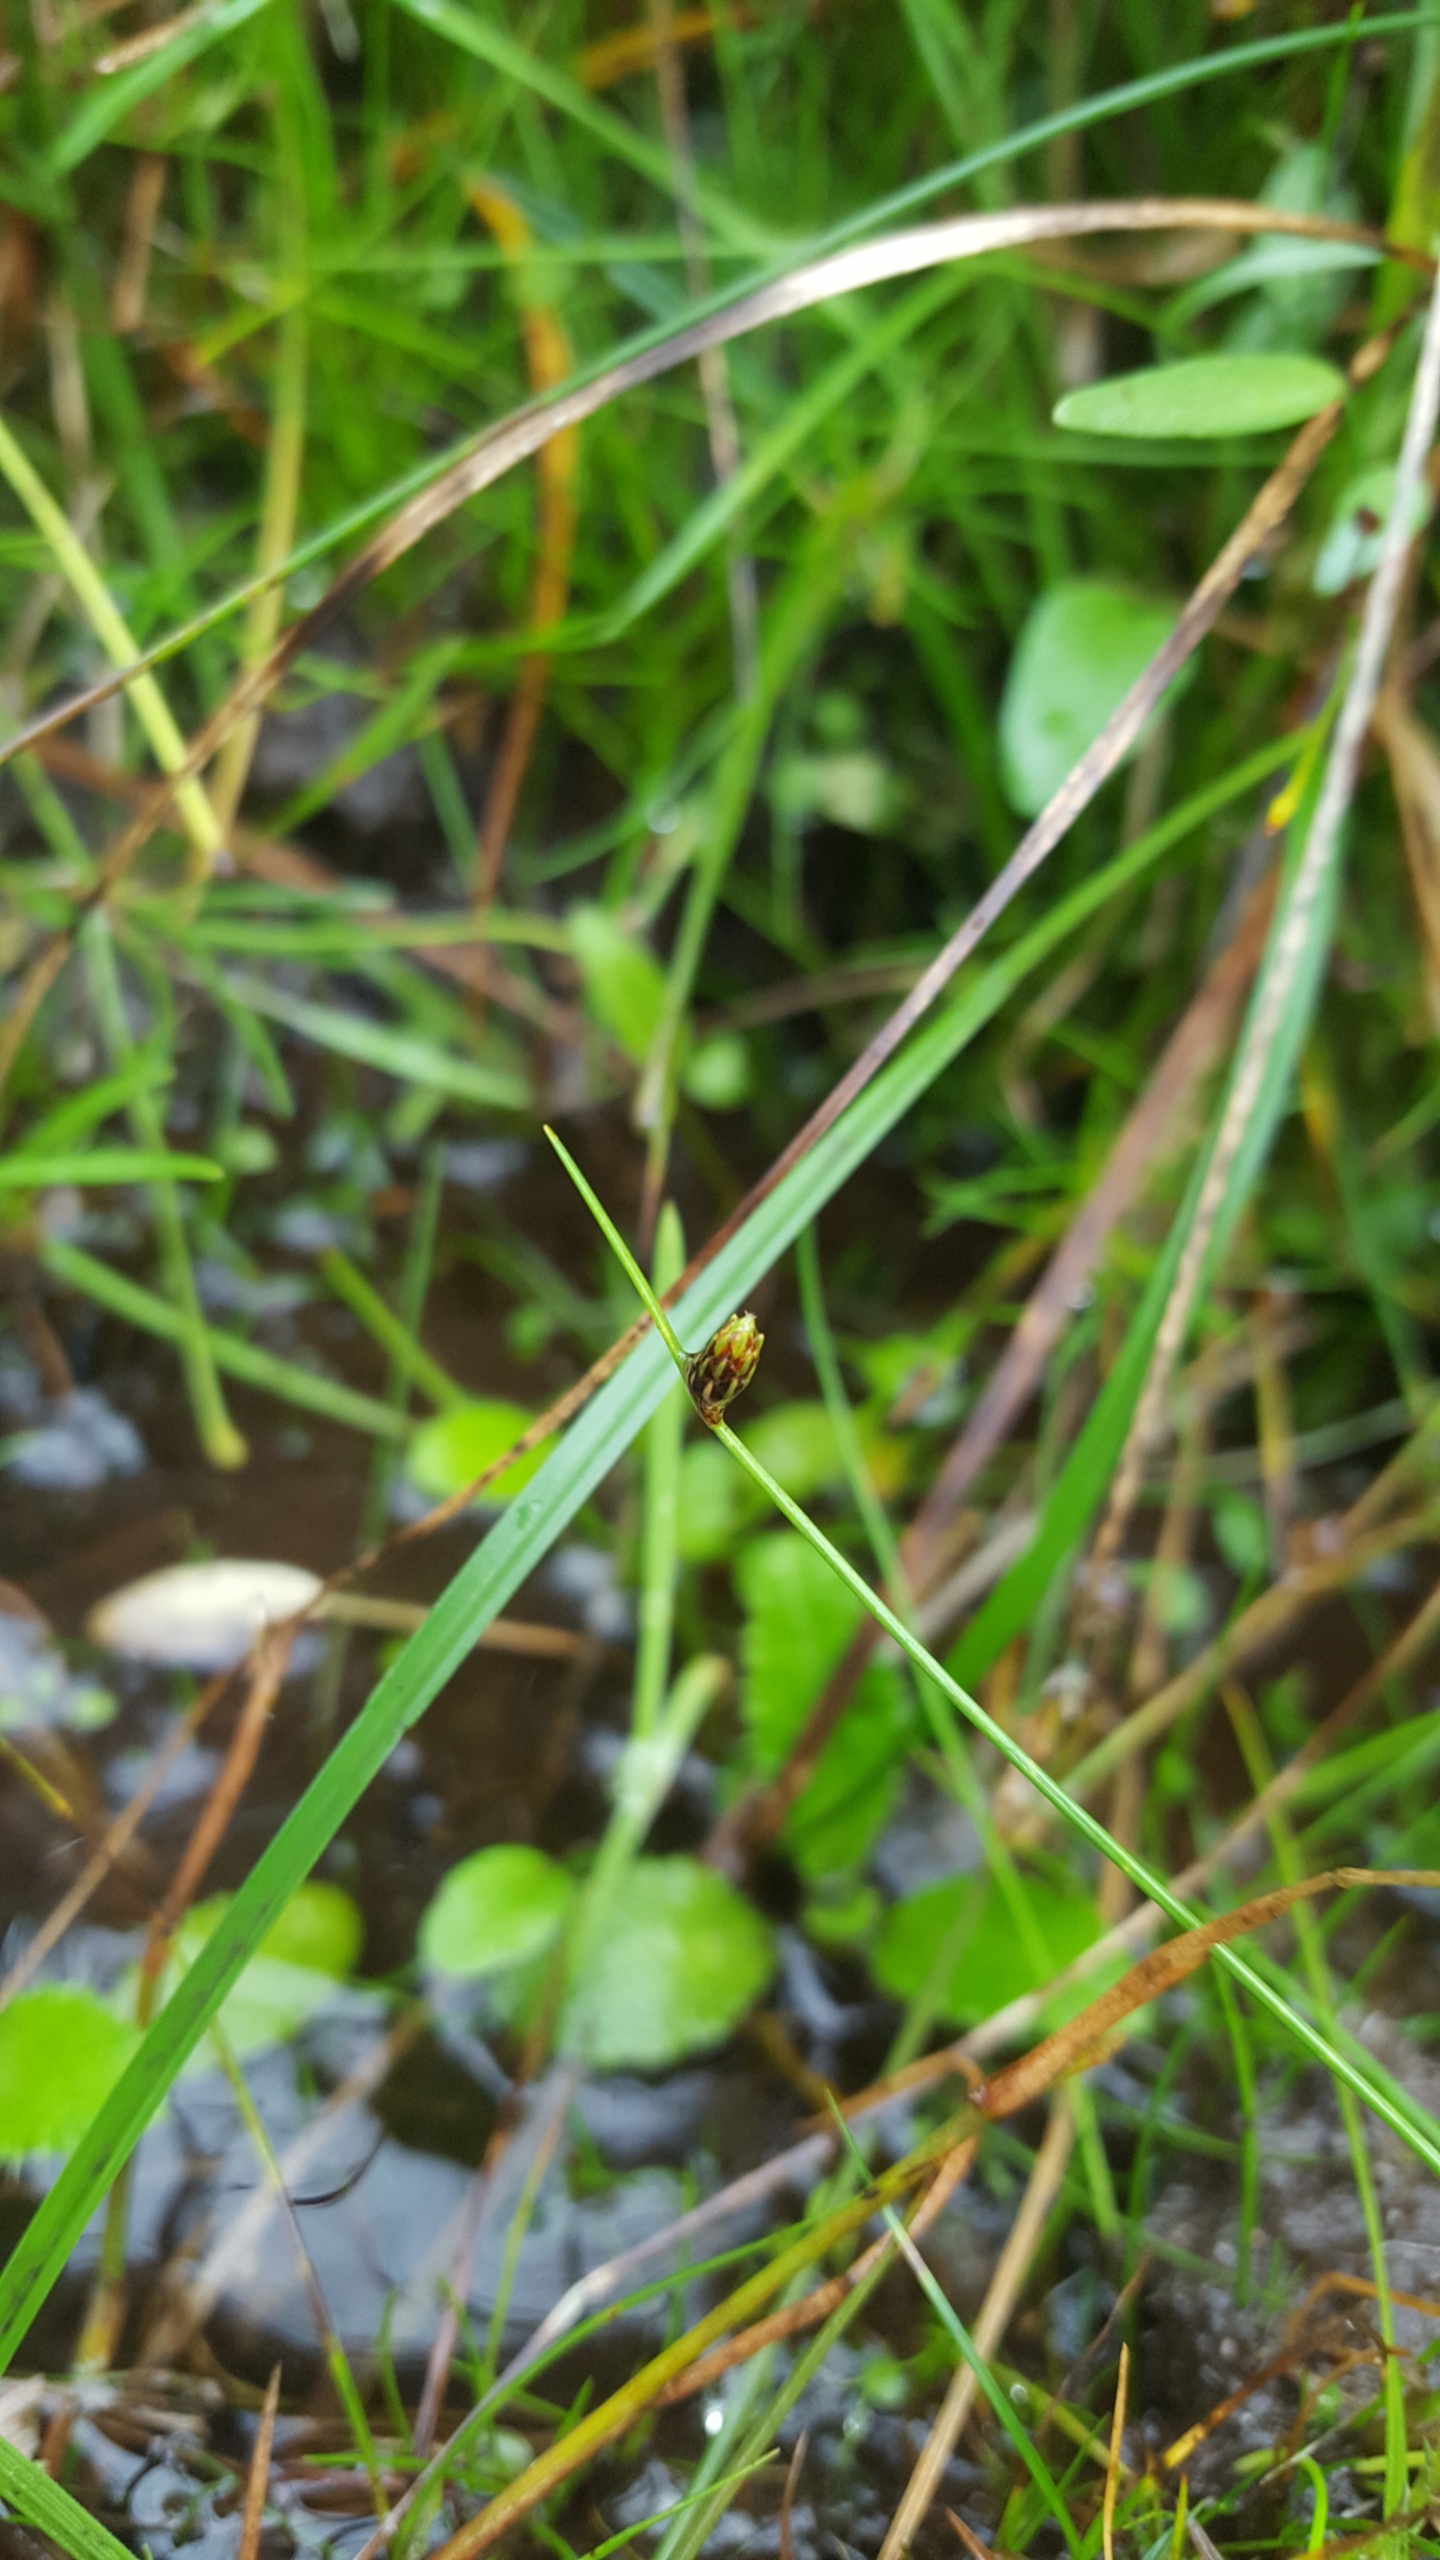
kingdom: Plantae
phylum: Tracheophyta
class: Liliopsida
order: Poales
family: Cyperaceae
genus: Isolepis
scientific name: Isolepis setacea
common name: Børste-kogleaks
